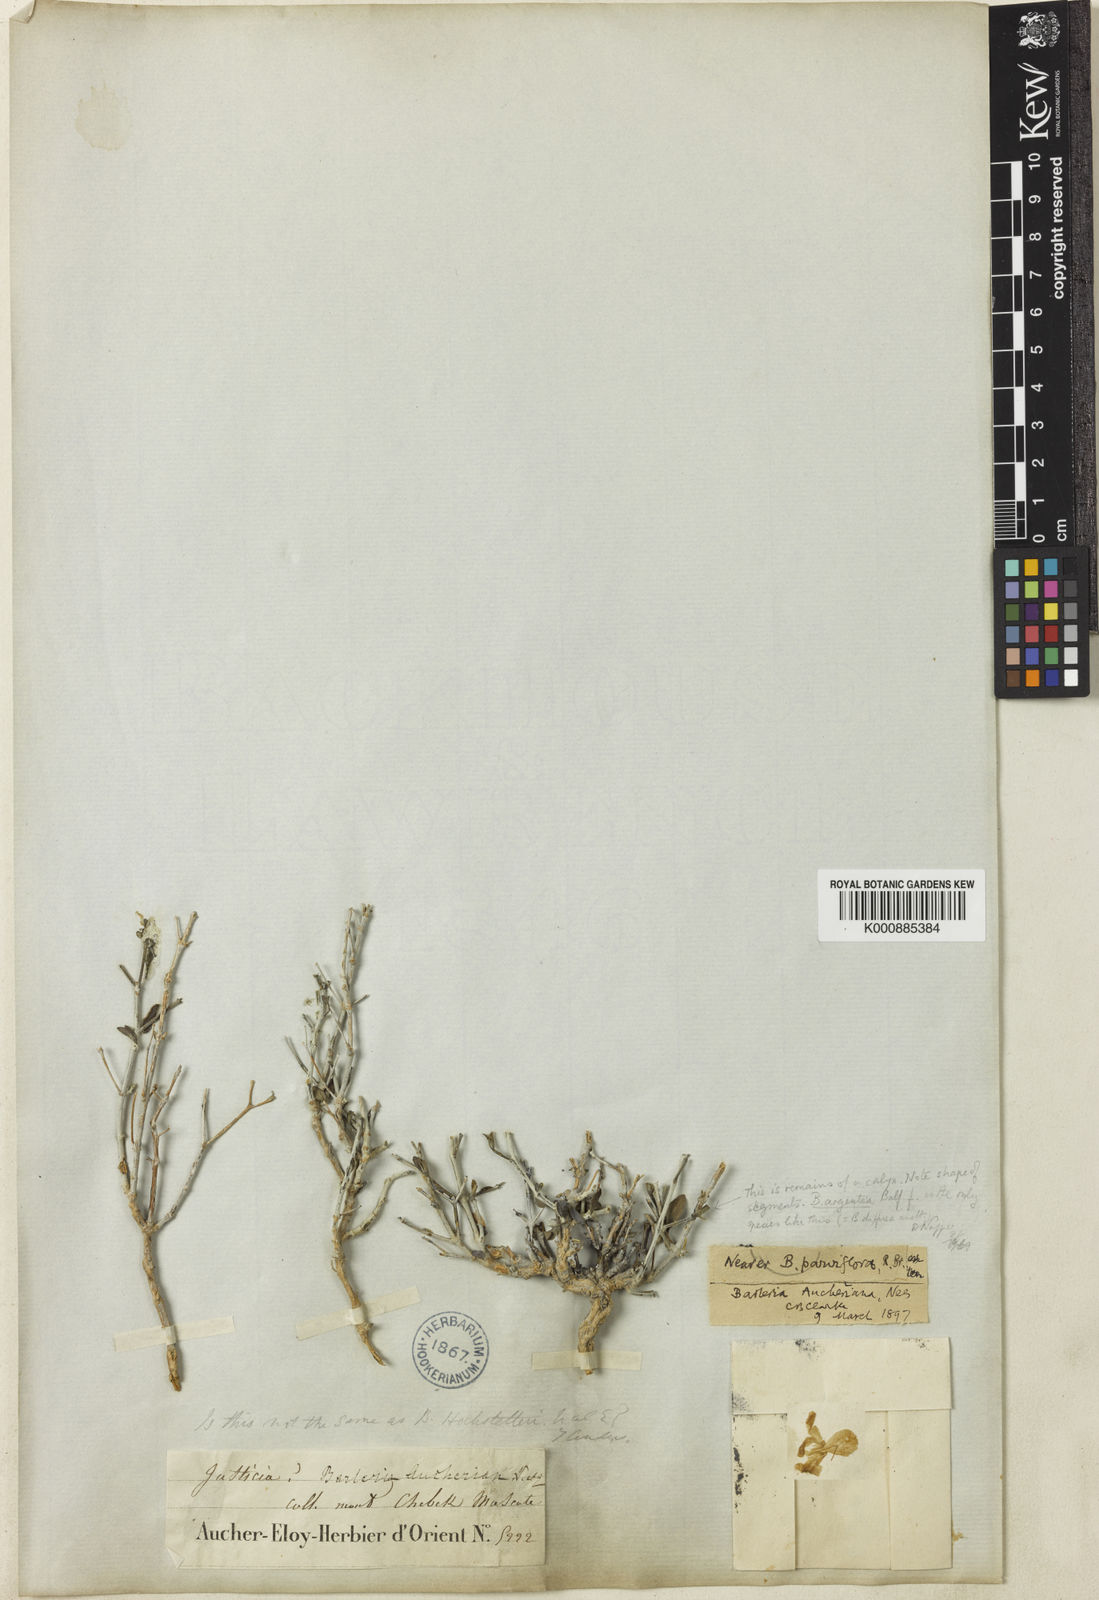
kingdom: Plantae
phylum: Tracheophyta
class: Magnoliopsida
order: Lamiales
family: Acanthaceae
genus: Barleria
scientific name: Barleria hochstetteri
